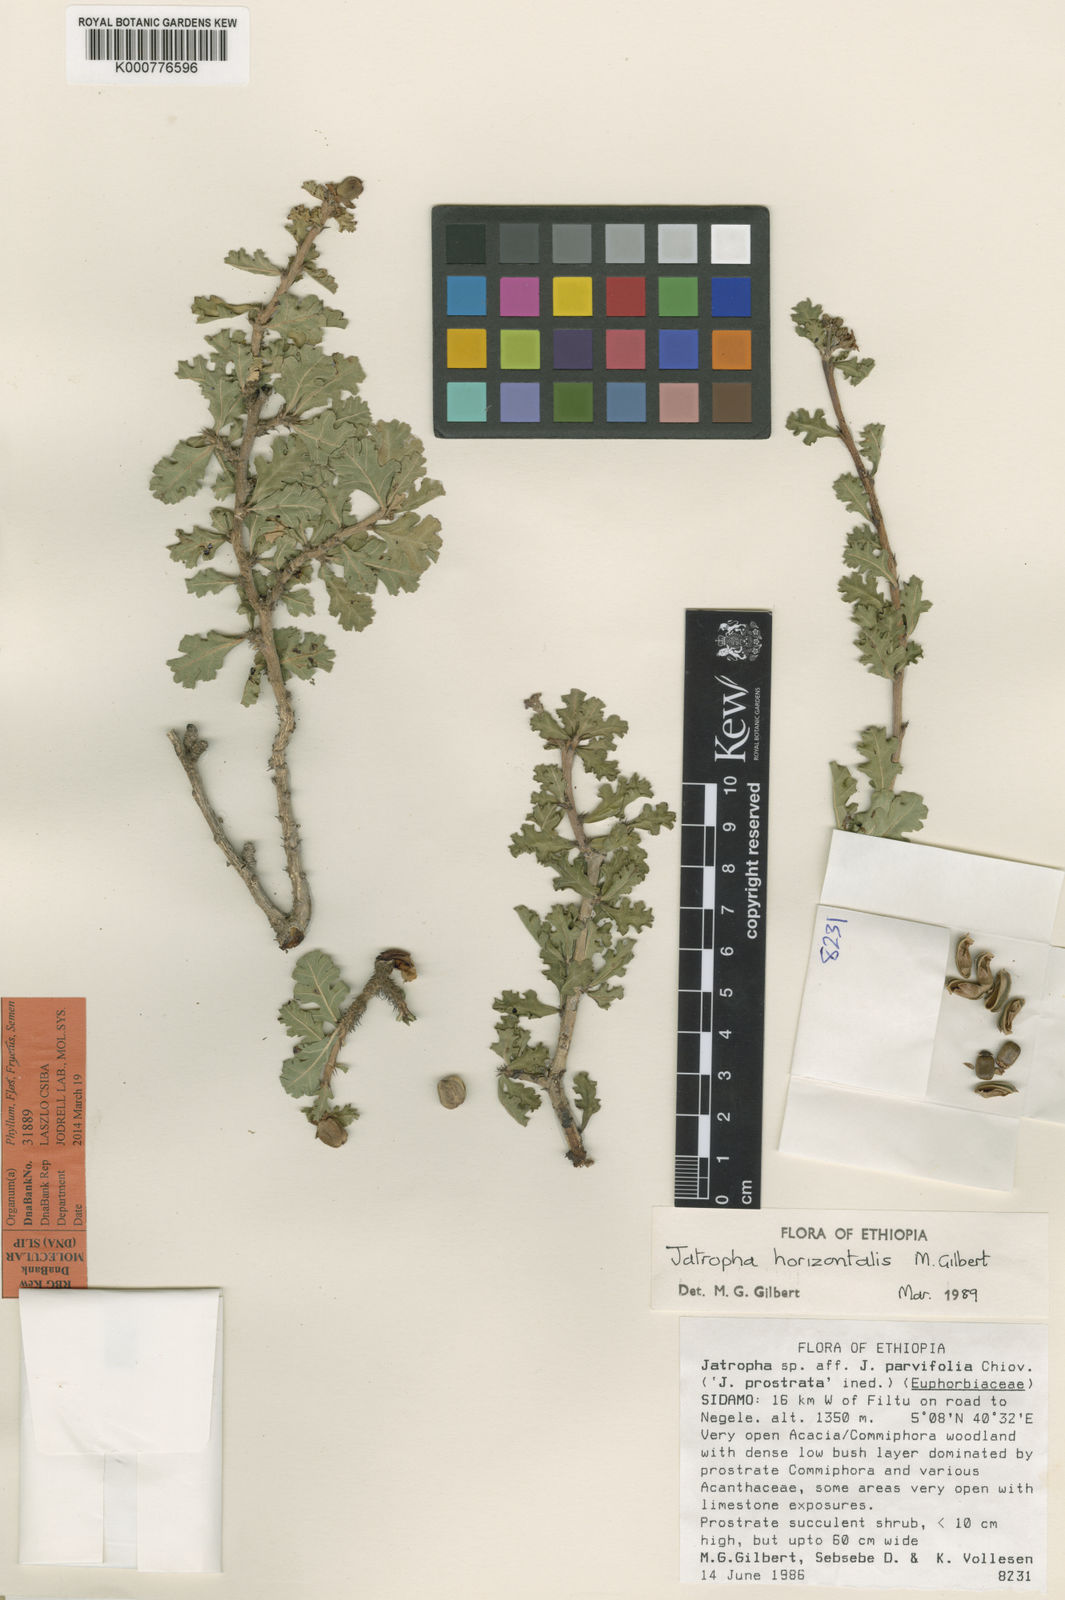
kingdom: Plantae
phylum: Tracheophyta
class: Magnoliopsida
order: Malpighiales
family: Euphorbiaceae
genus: Jatropha
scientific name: Jatropha horizontalis
